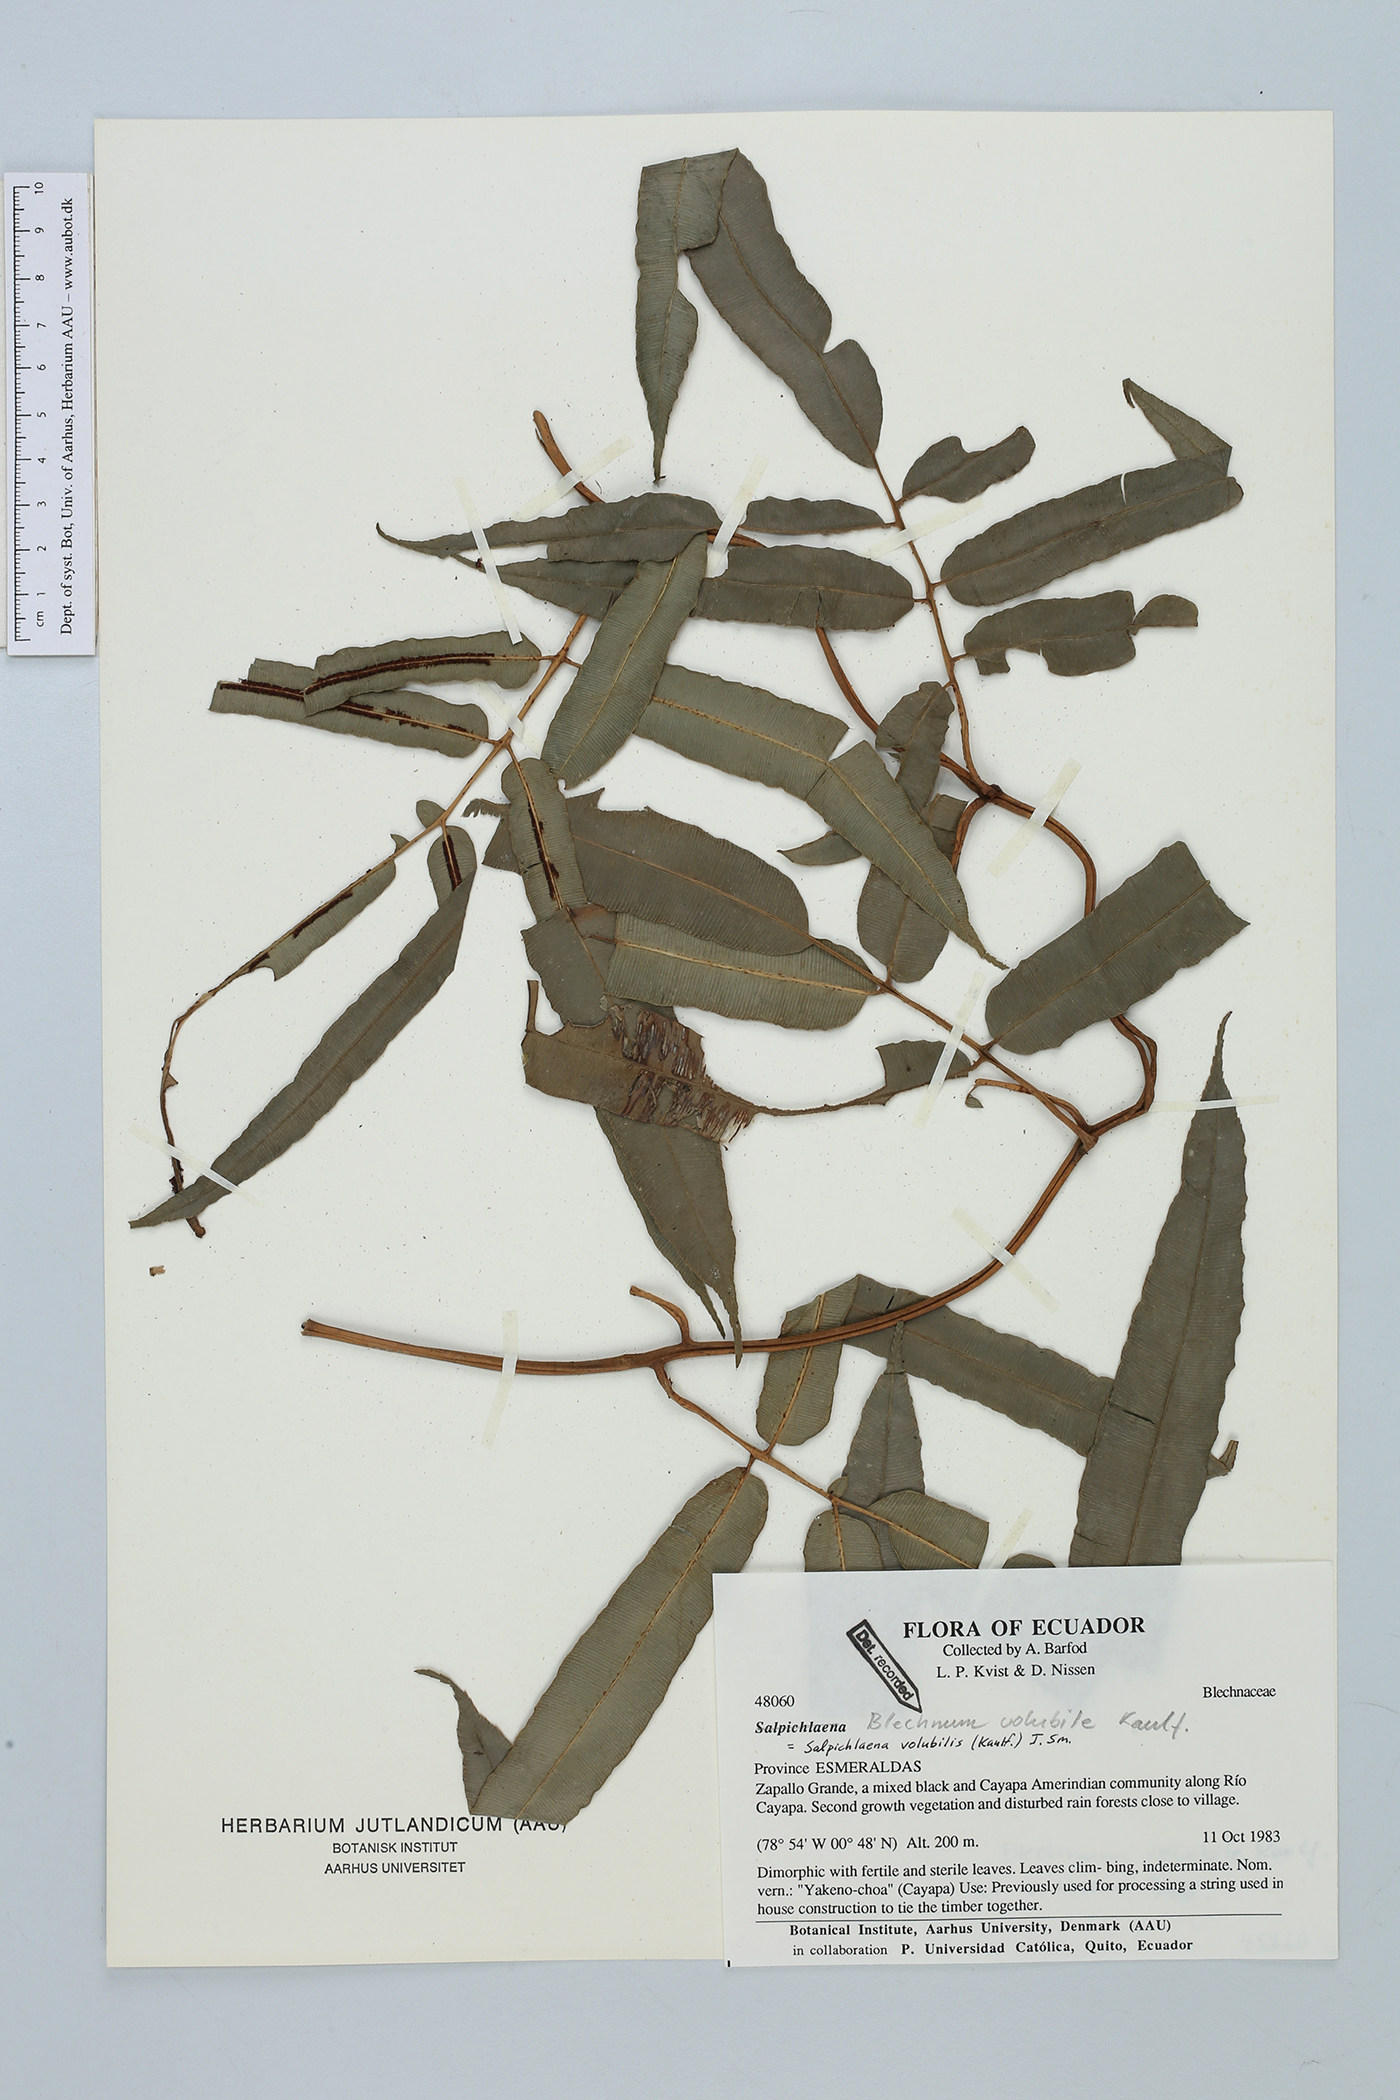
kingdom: Plantae
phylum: Tracheophyta
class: Polypodiopsida
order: Polypodiales
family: Blechnaceae
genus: Salpichlaena
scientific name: Salpichlaena volubilis
